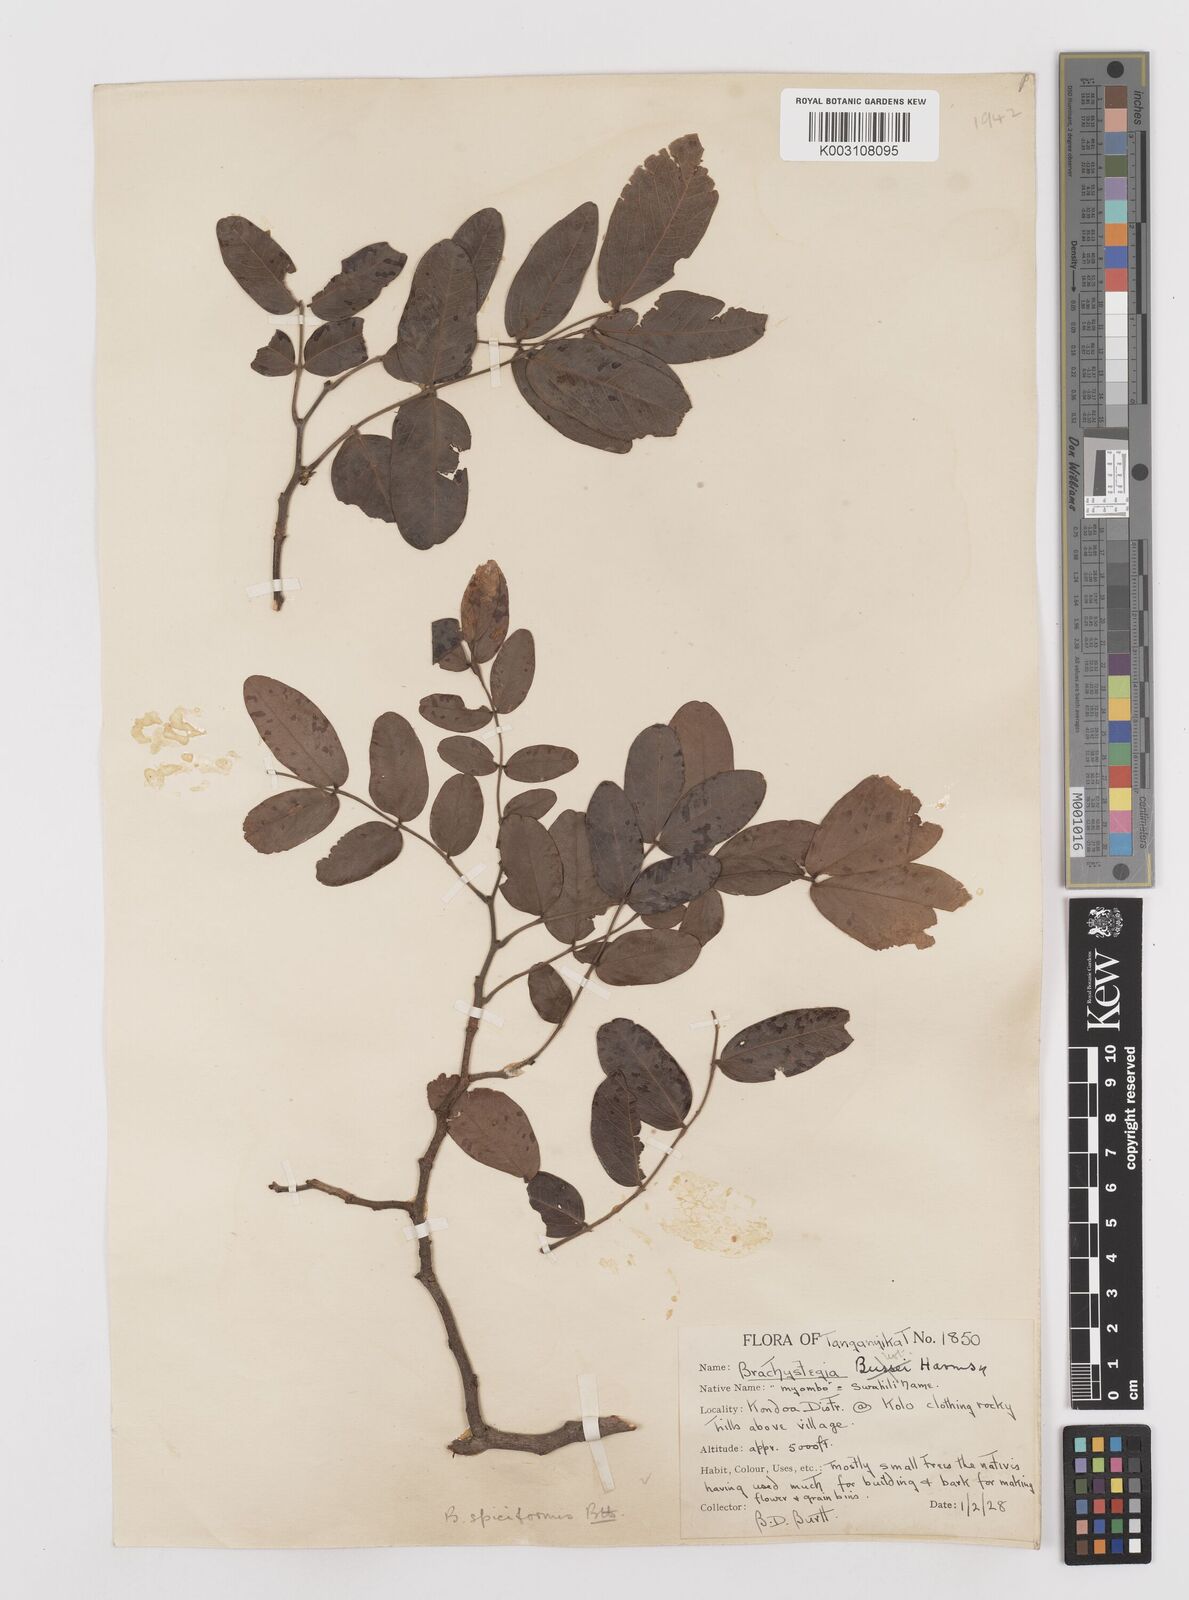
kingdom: Plantae
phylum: Tracheophyta
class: Magnoliopsida
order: Fabales
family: Fabaceae
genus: Brachystegia
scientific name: Brachystegia spiciformis
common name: Zebrawood
